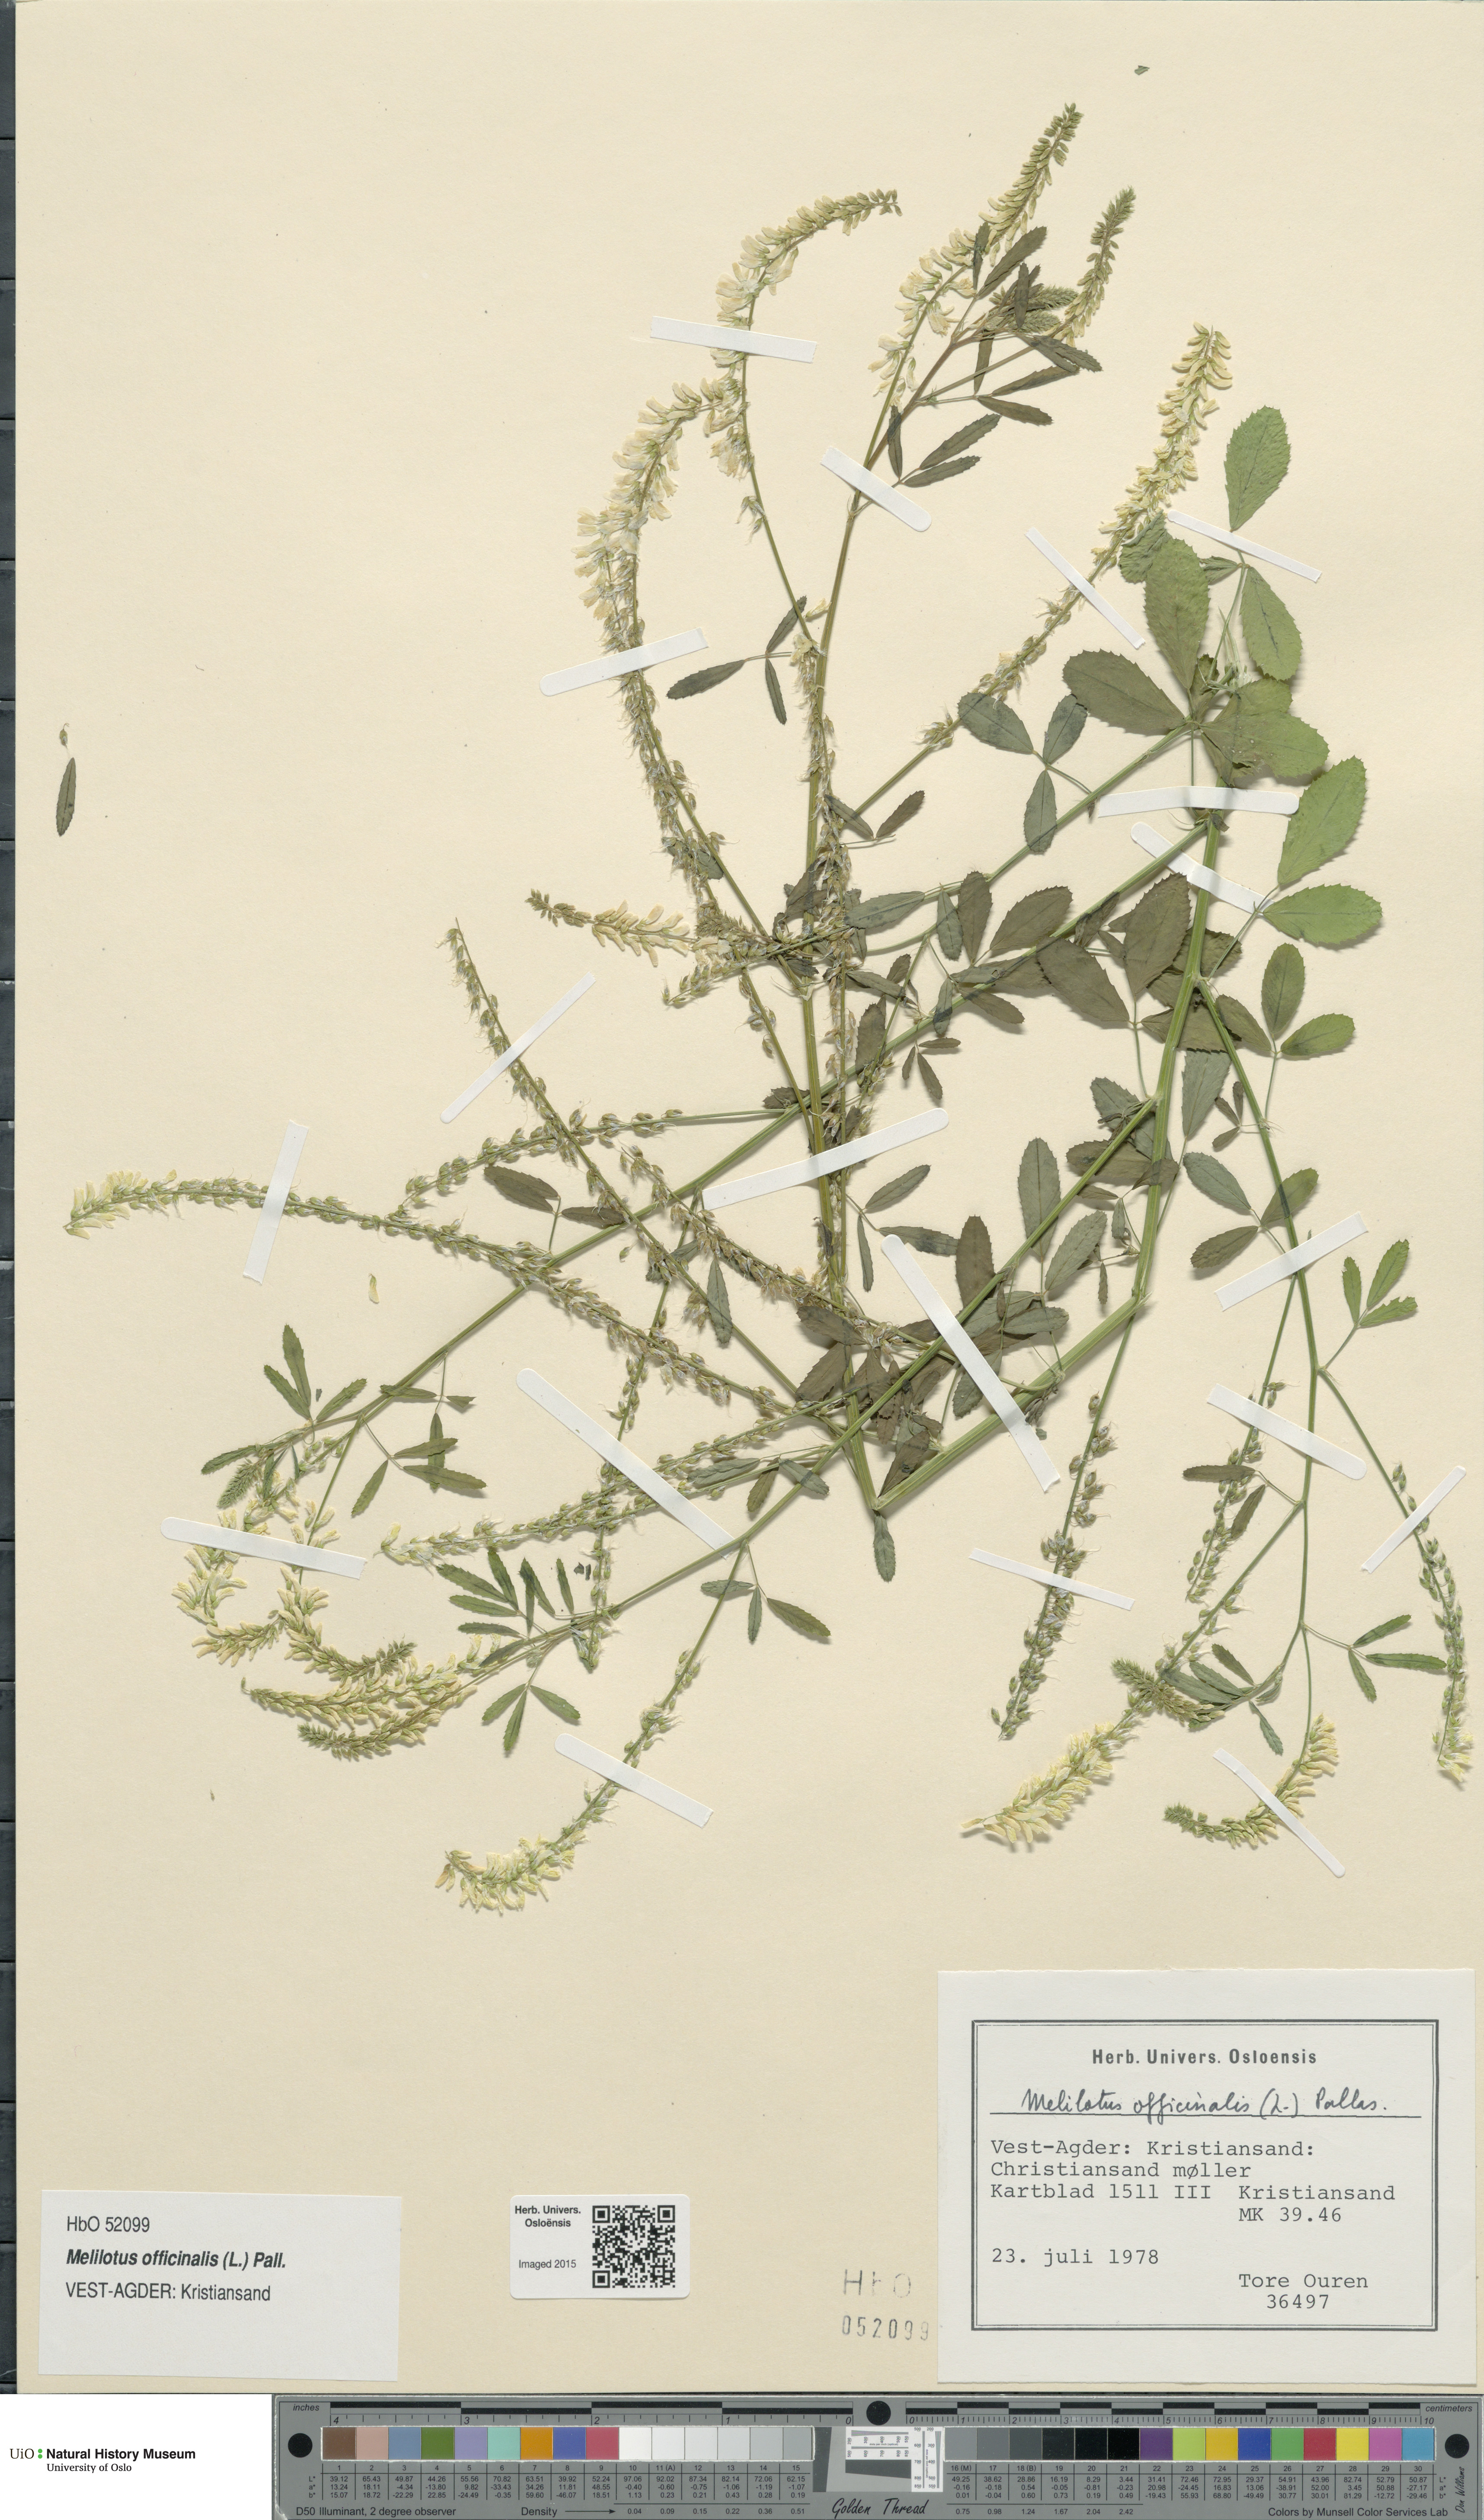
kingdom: Plantae
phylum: Tracheophyta
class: Magnoliopsida
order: Fabales
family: Fabaceae
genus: Melilotus
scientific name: Melilotus officinalis
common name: Sweetclover
